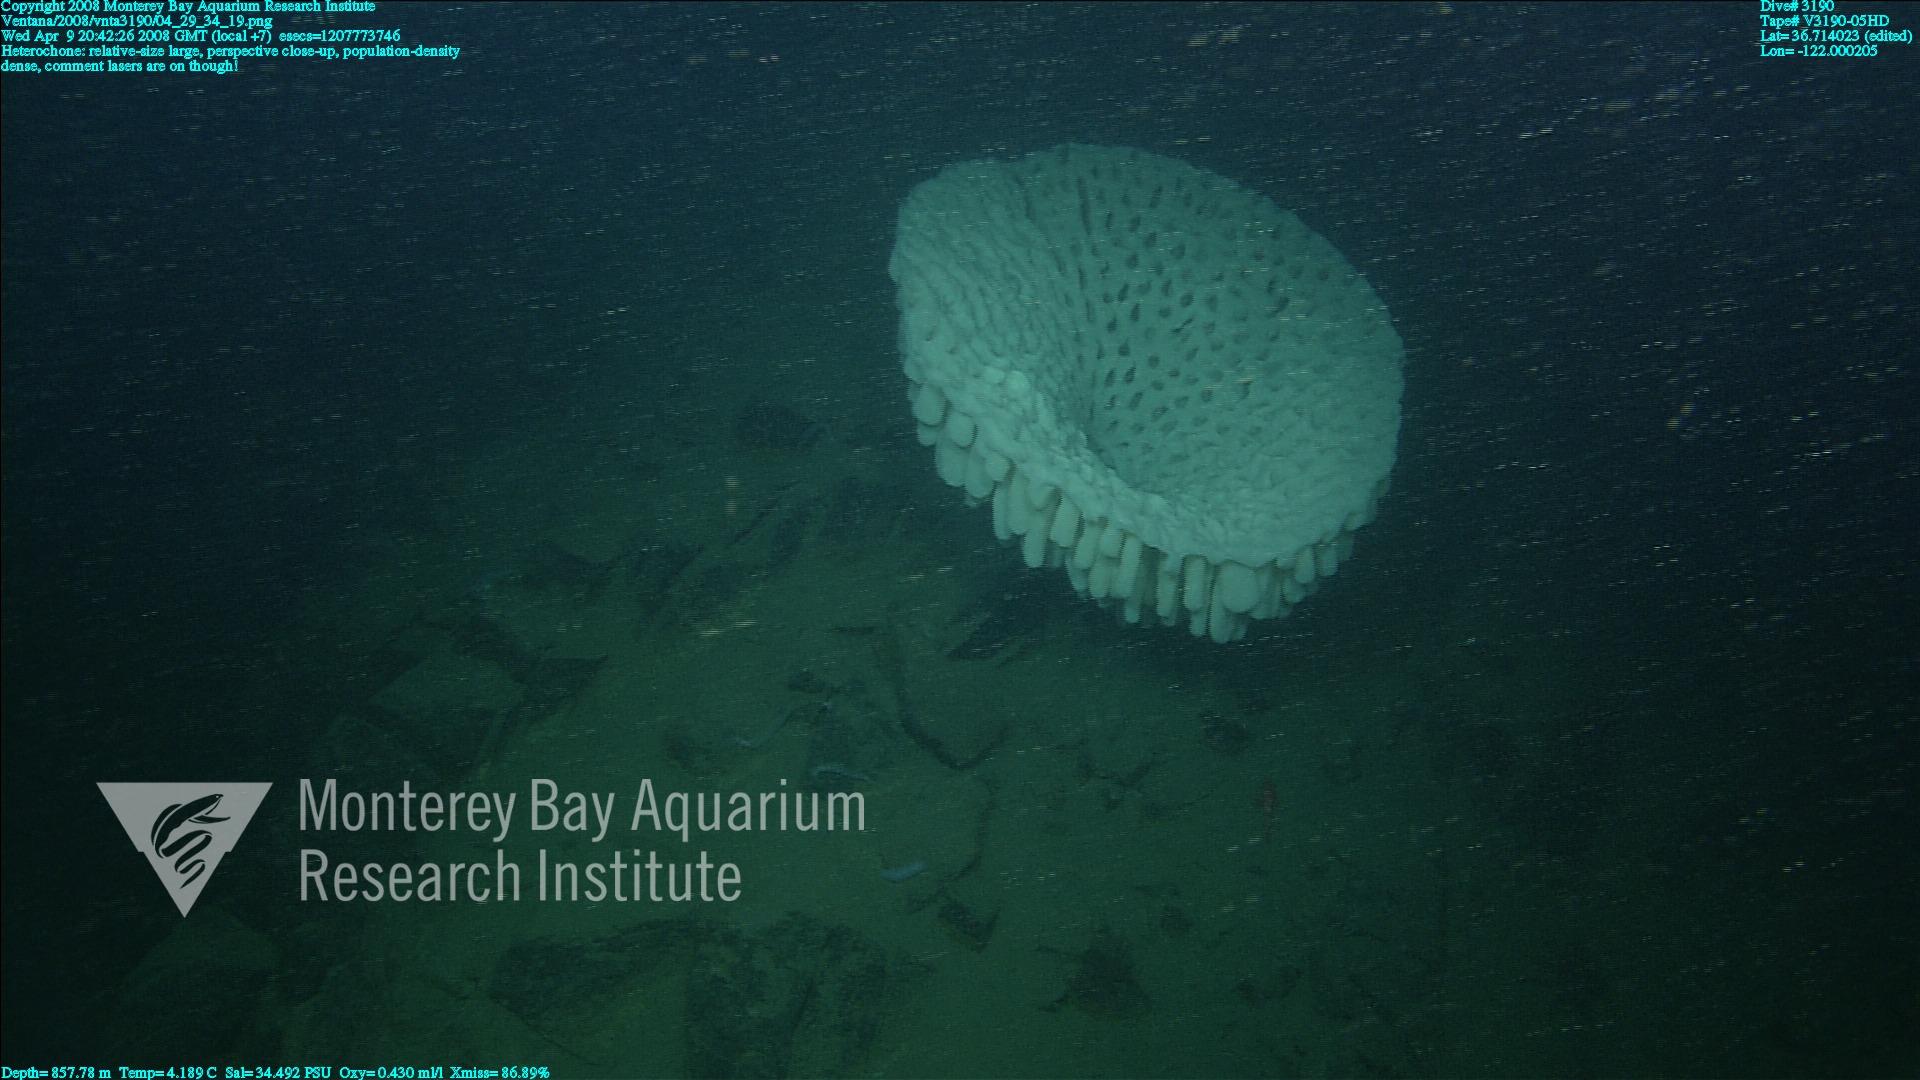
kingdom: Animalia
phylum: Porifera
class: Hexactinellida
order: Sceptrulophora
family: Aphrocallistidae
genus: Heterochone
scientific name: Heterochone
